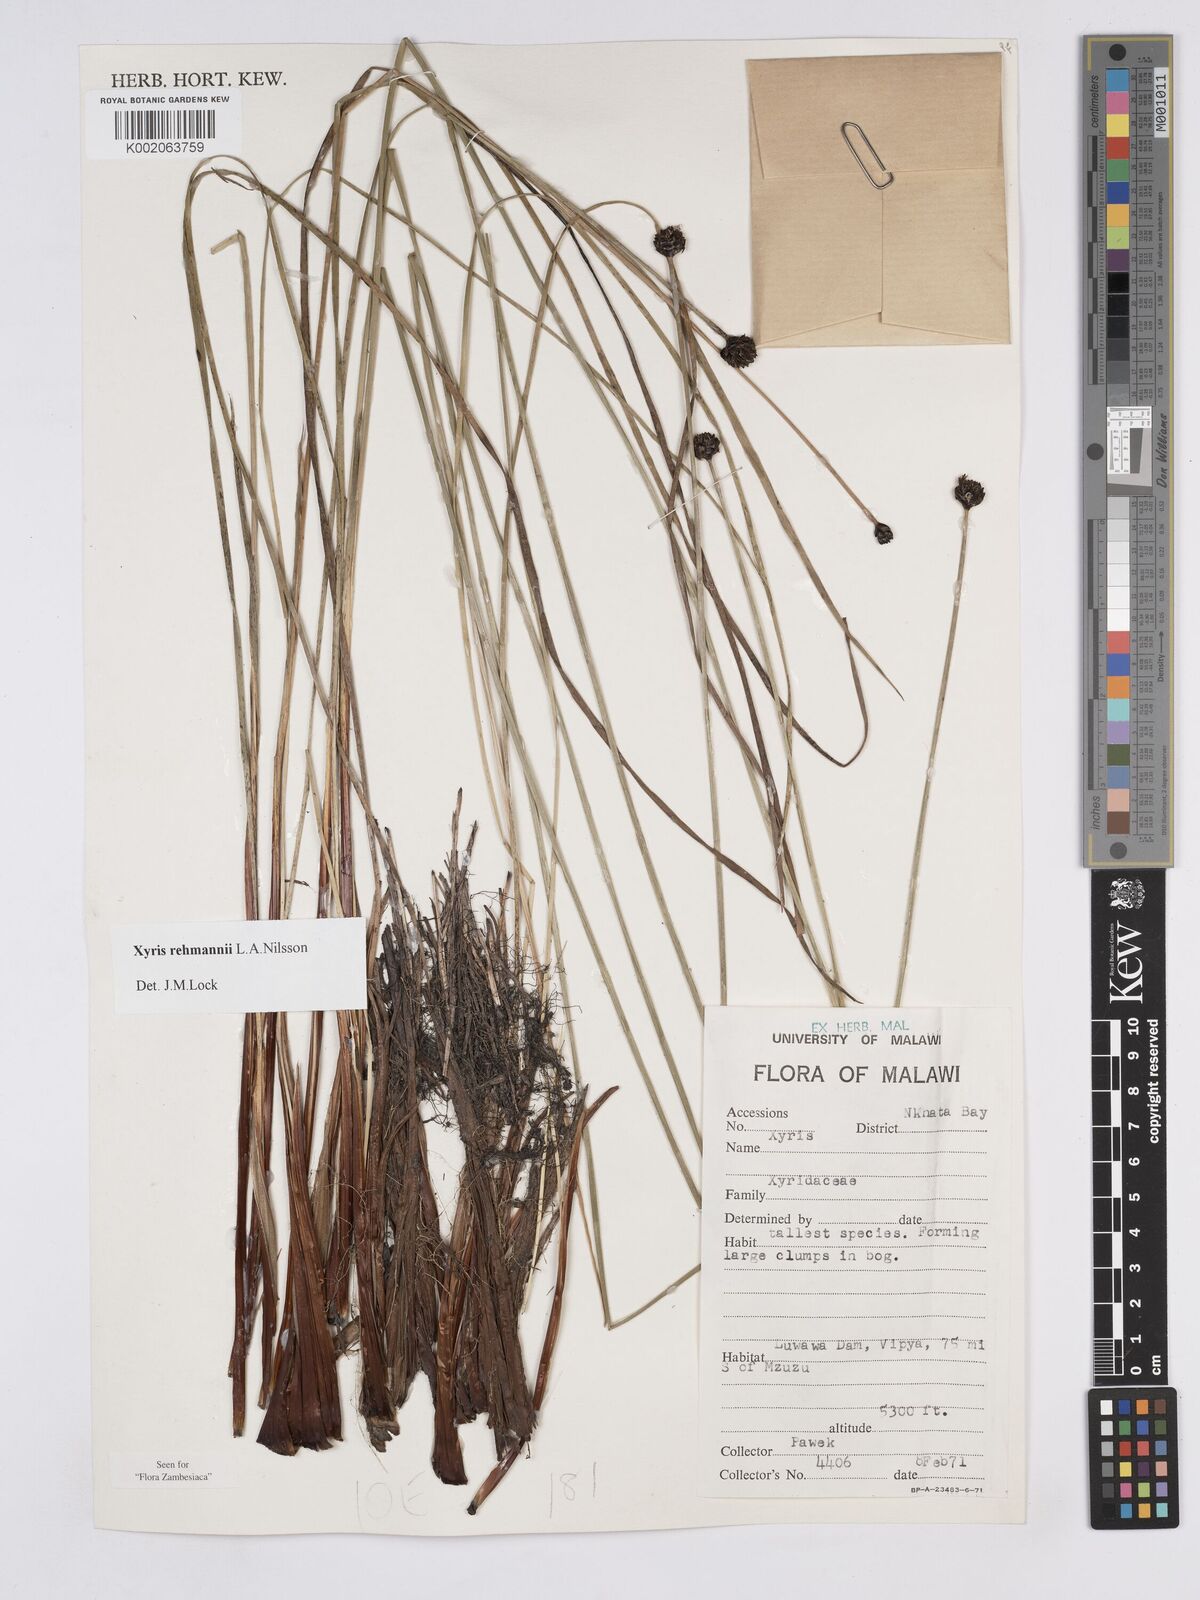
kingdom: Plantae
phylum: Tracheophyta
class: Liliopsida
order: Poales
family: Xyridaceae
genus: Xyris
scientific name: Xyris rehmannii
